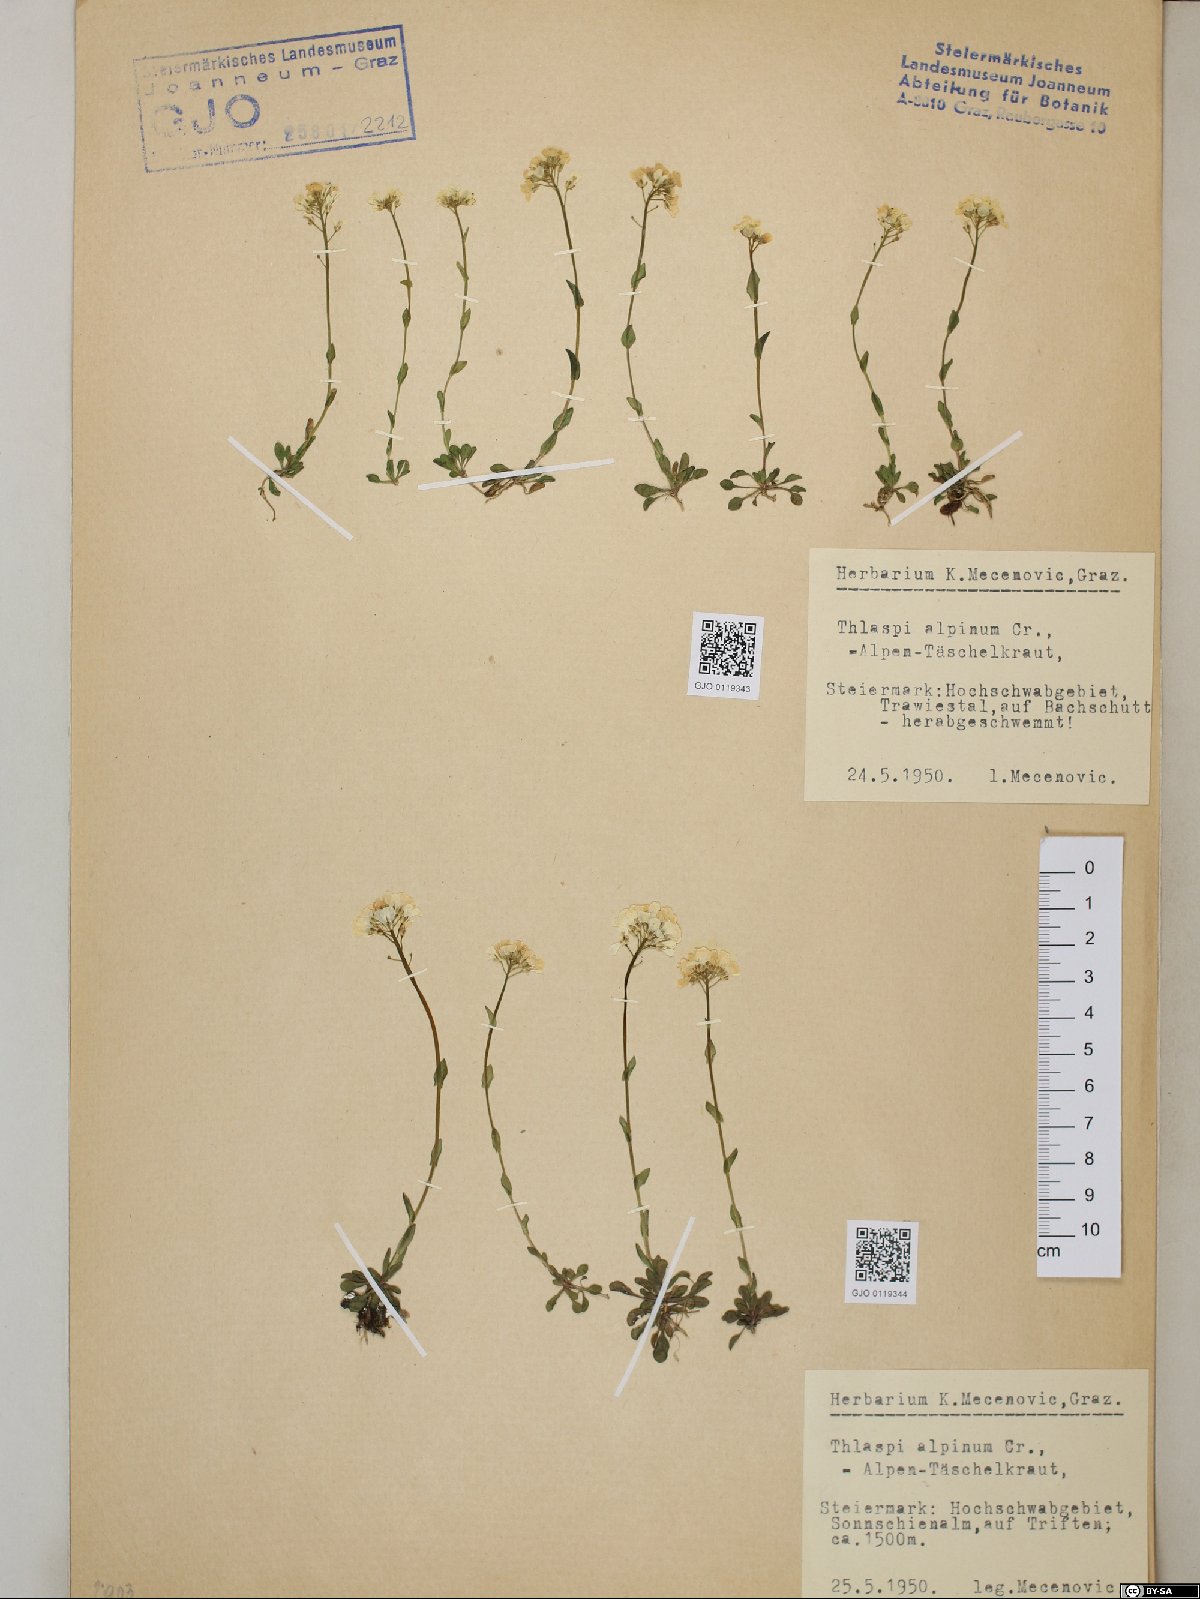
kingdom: Plantae
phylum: Tracheophyta
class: Magnoliopsida
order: Brassicales
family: Brassicaceae
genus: Noccaea
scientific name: Noccaea alpestris
